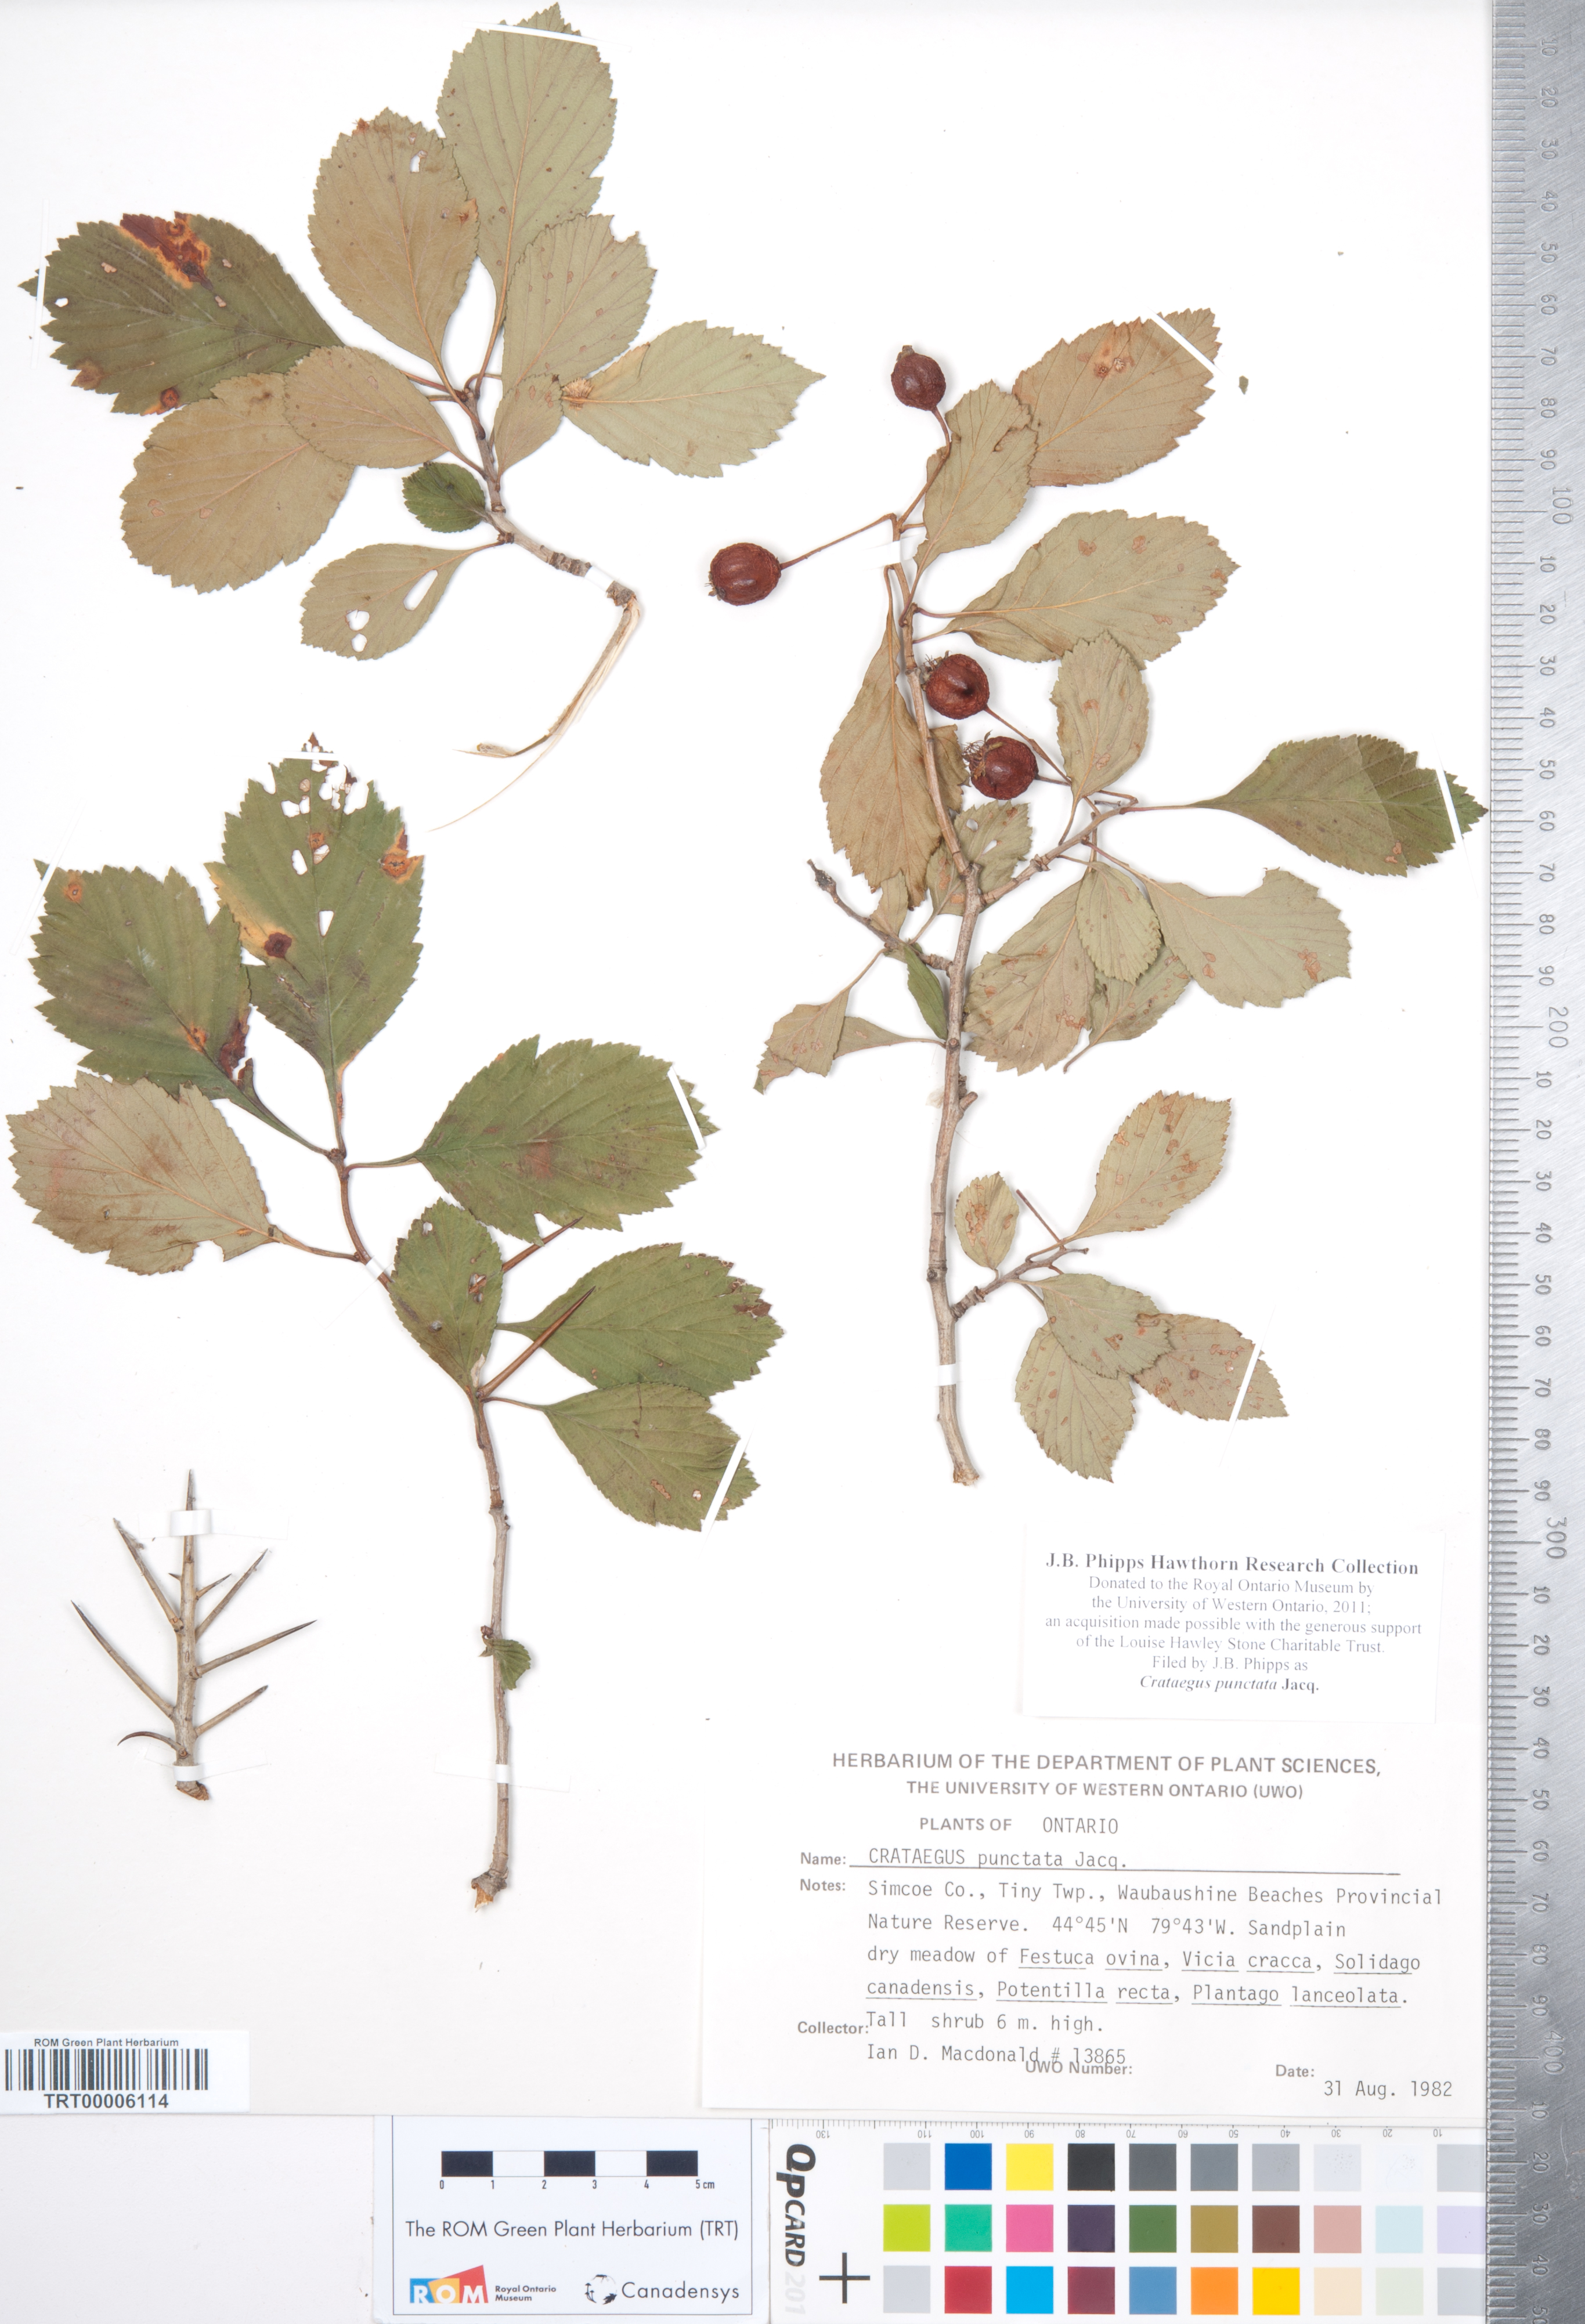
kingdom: Plantae
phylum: Tracheophyta
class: Magnoliopsida
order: Rosales
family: Rosaceae
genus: Crataegus
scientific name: Crataegus punctata
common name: Dotted hawthorn
